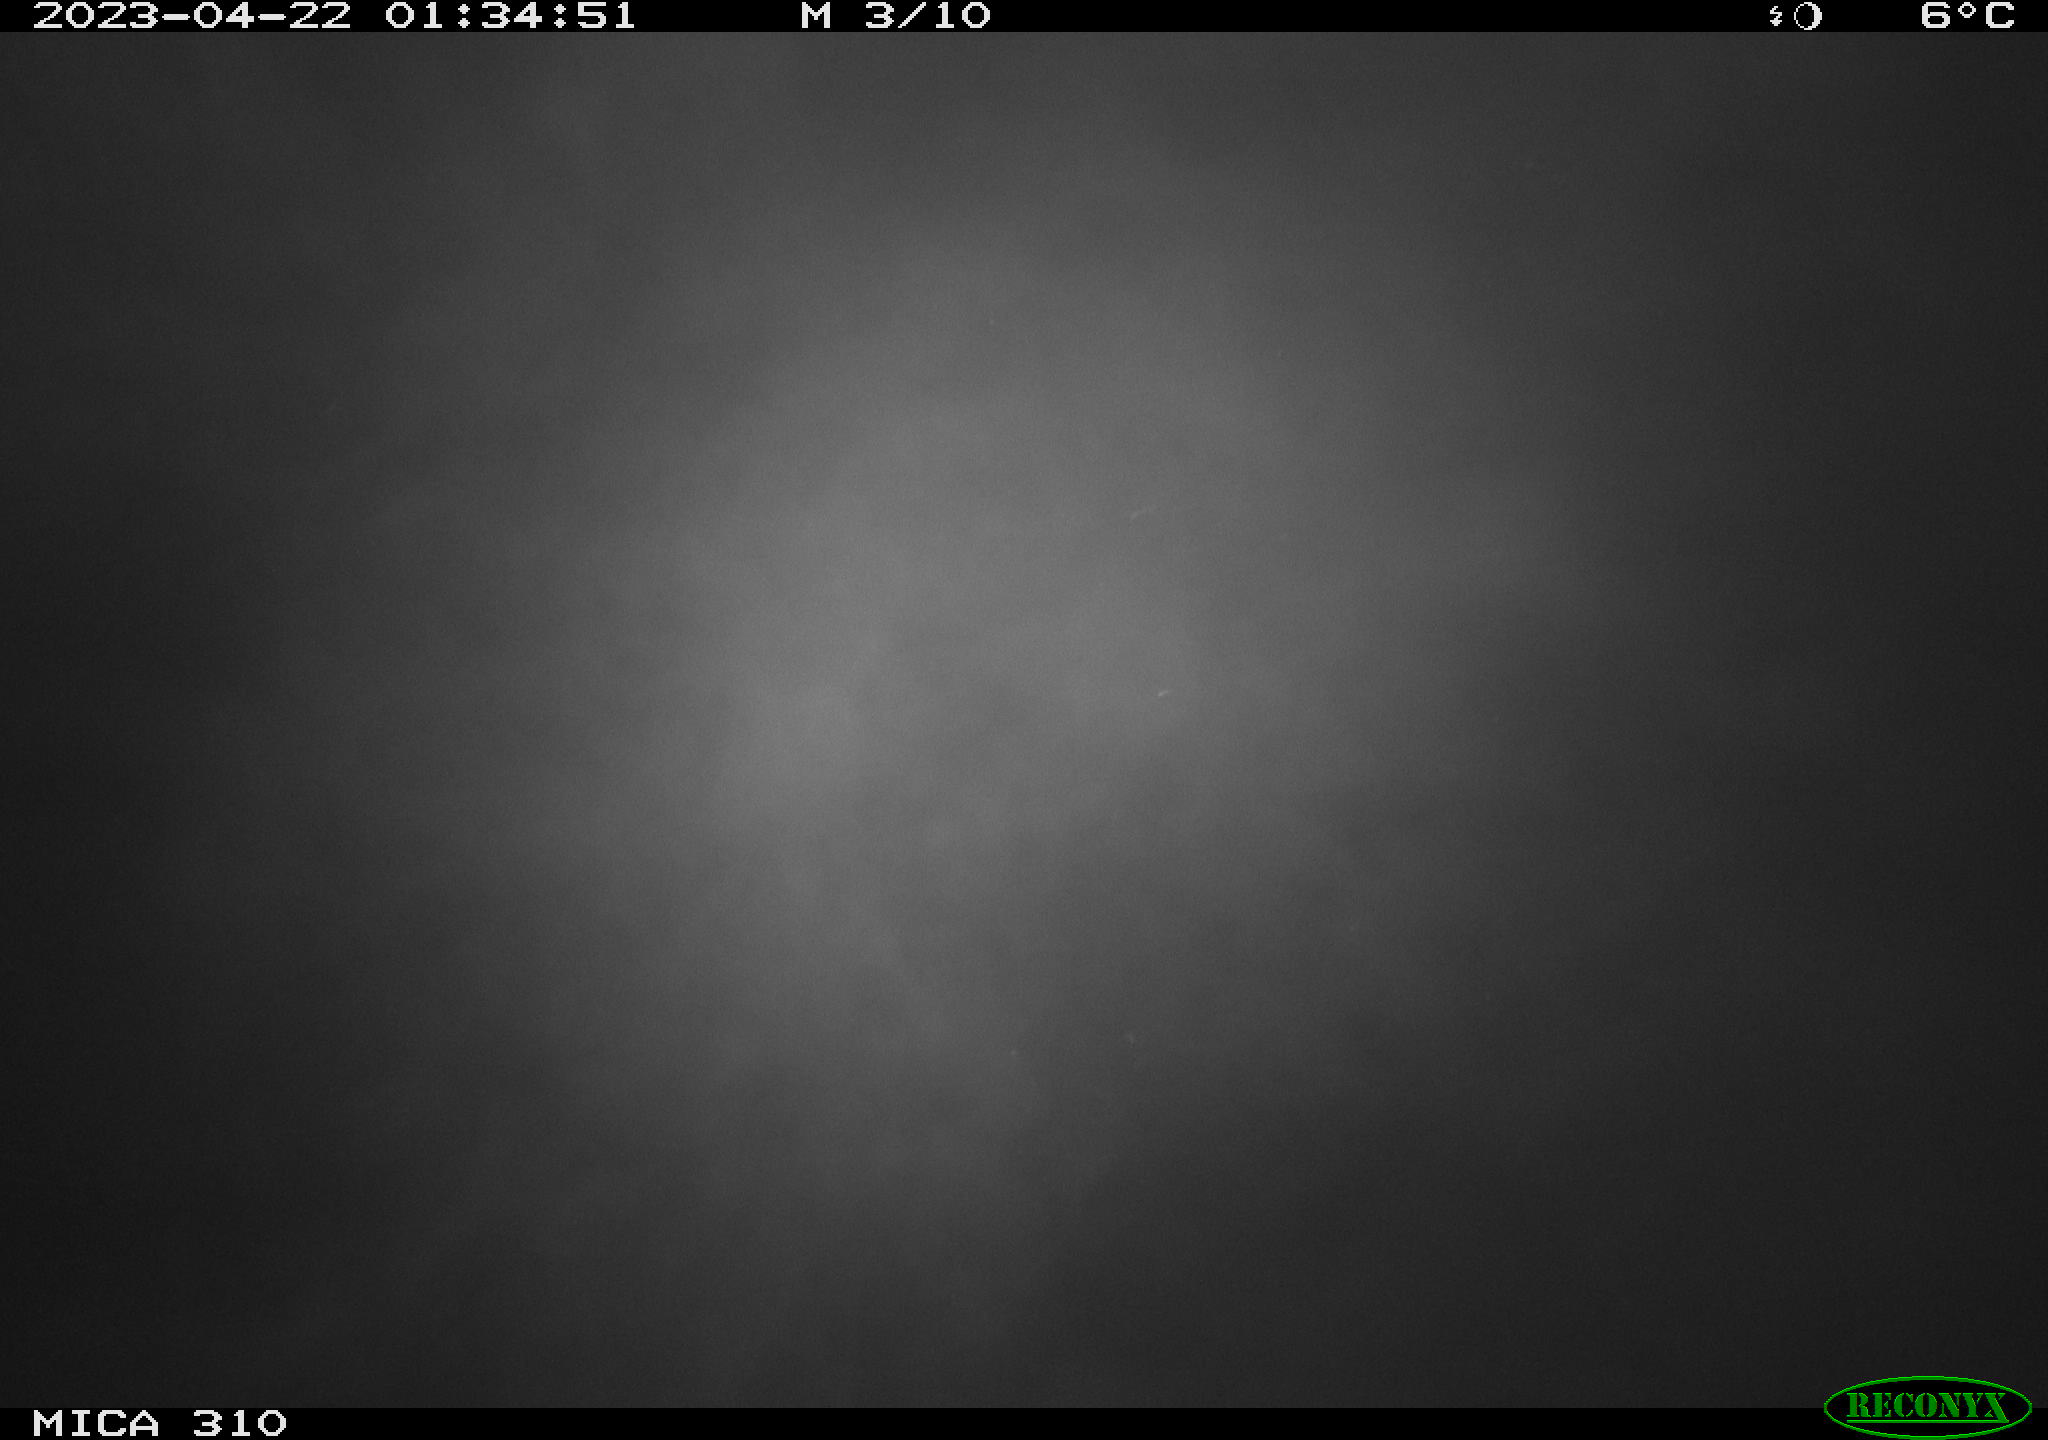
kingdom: Animalia
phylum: Chordata
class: Aves
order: Anseriformes
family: Anatidae
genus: Anas
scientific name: Anas
